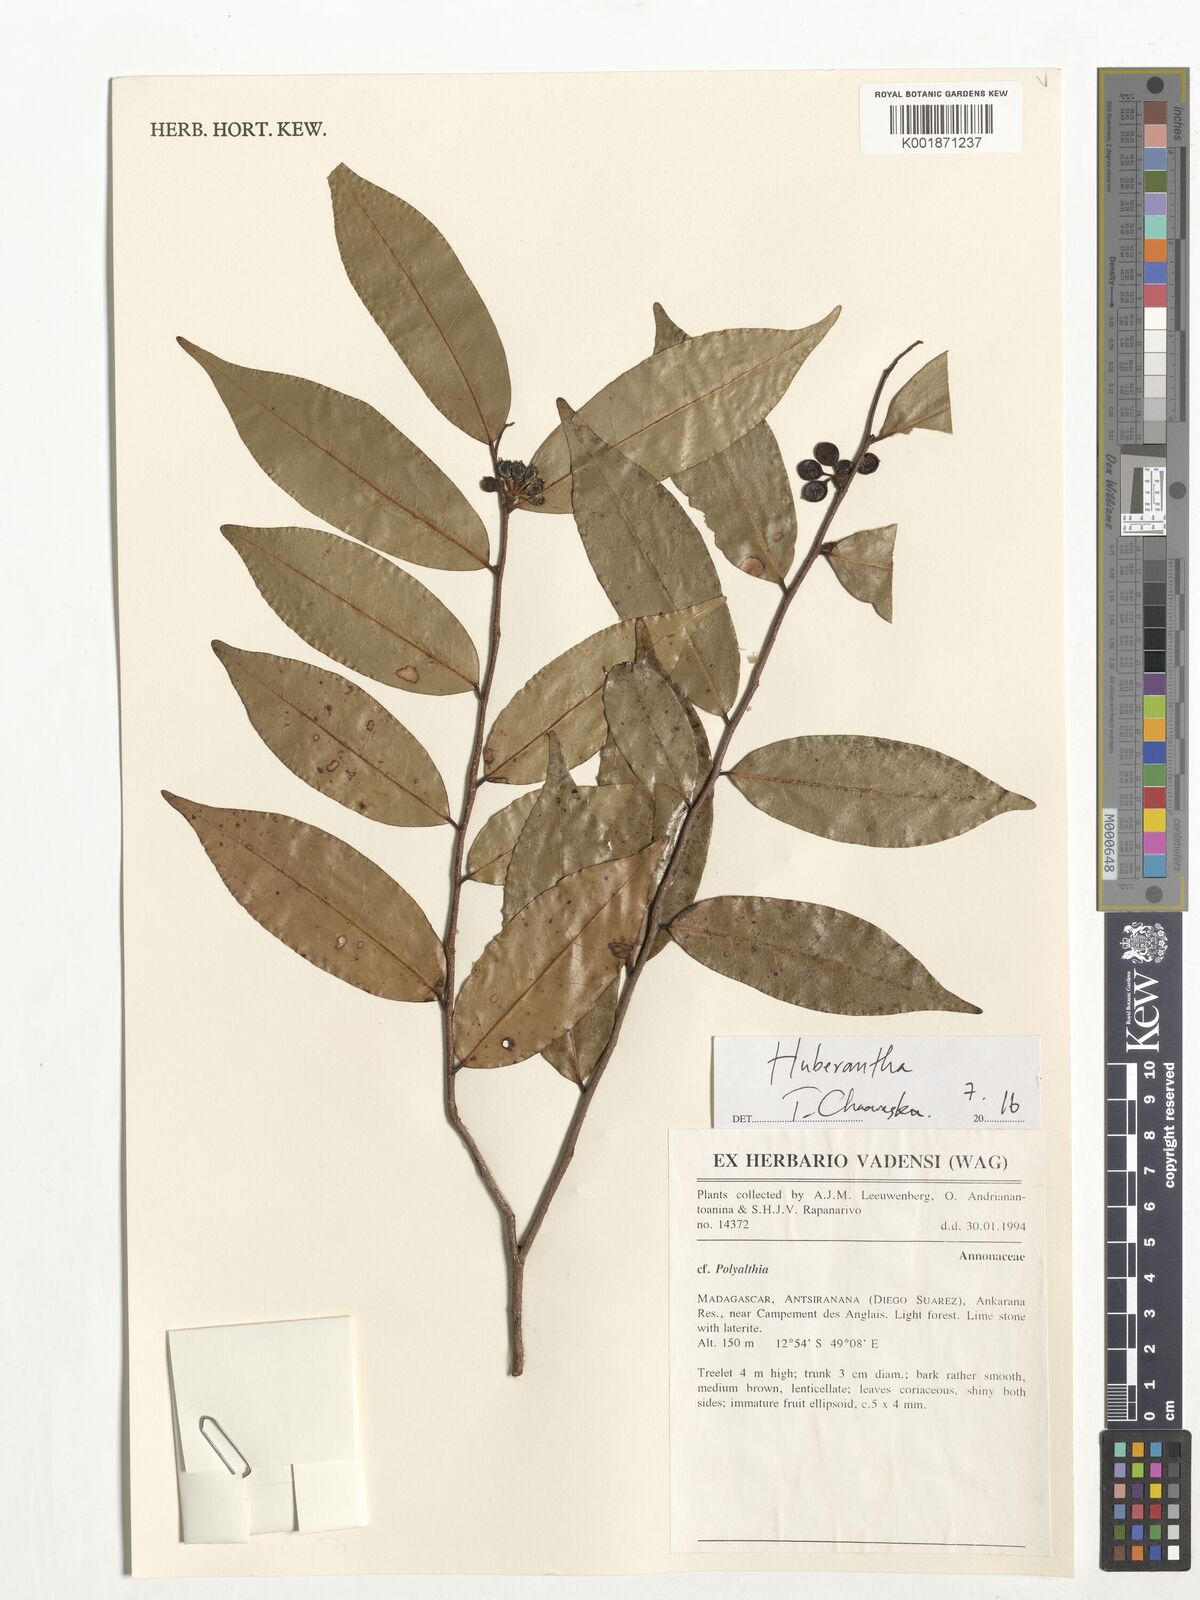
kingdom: Plantae
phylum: Tracheophyta
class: Magnoliopsida
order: Magnoliales
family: Annonaceae
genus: Huberantha
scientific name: Huberantha
